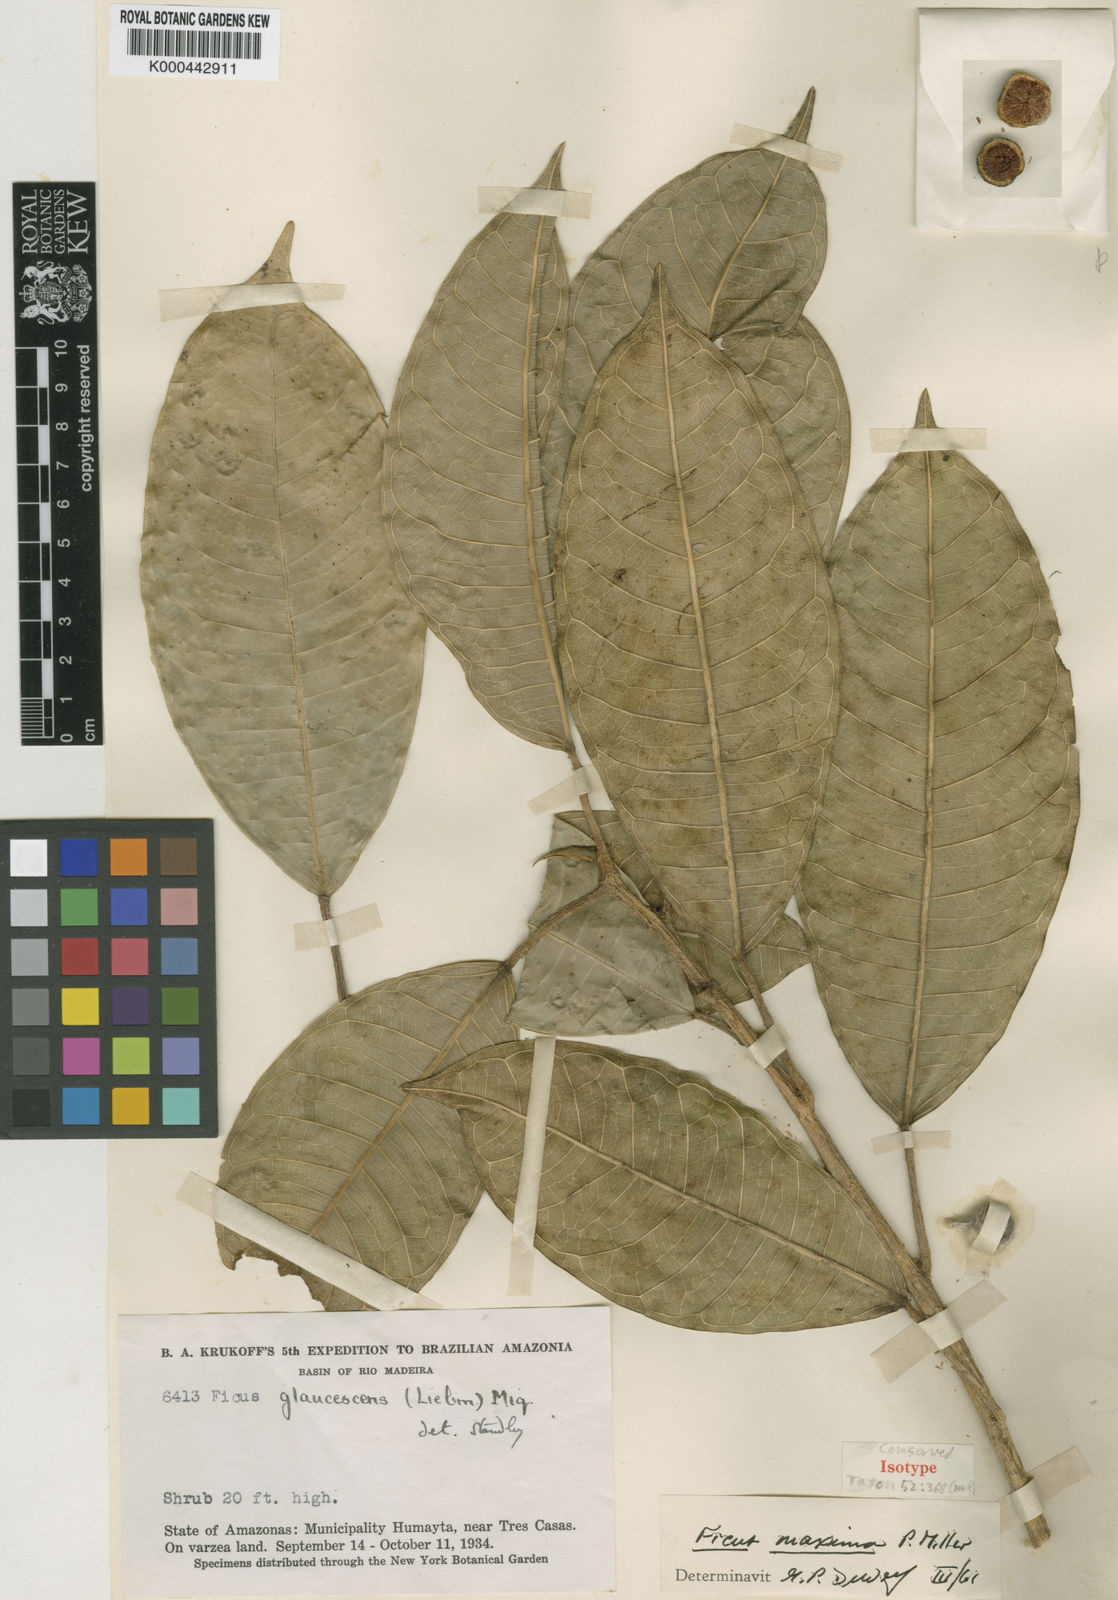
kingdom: Plantae
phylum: Tracheophyta
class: Magnoliopsida
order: Rosales
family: Moraceae
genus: Ficus
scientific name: Ficus maxima
